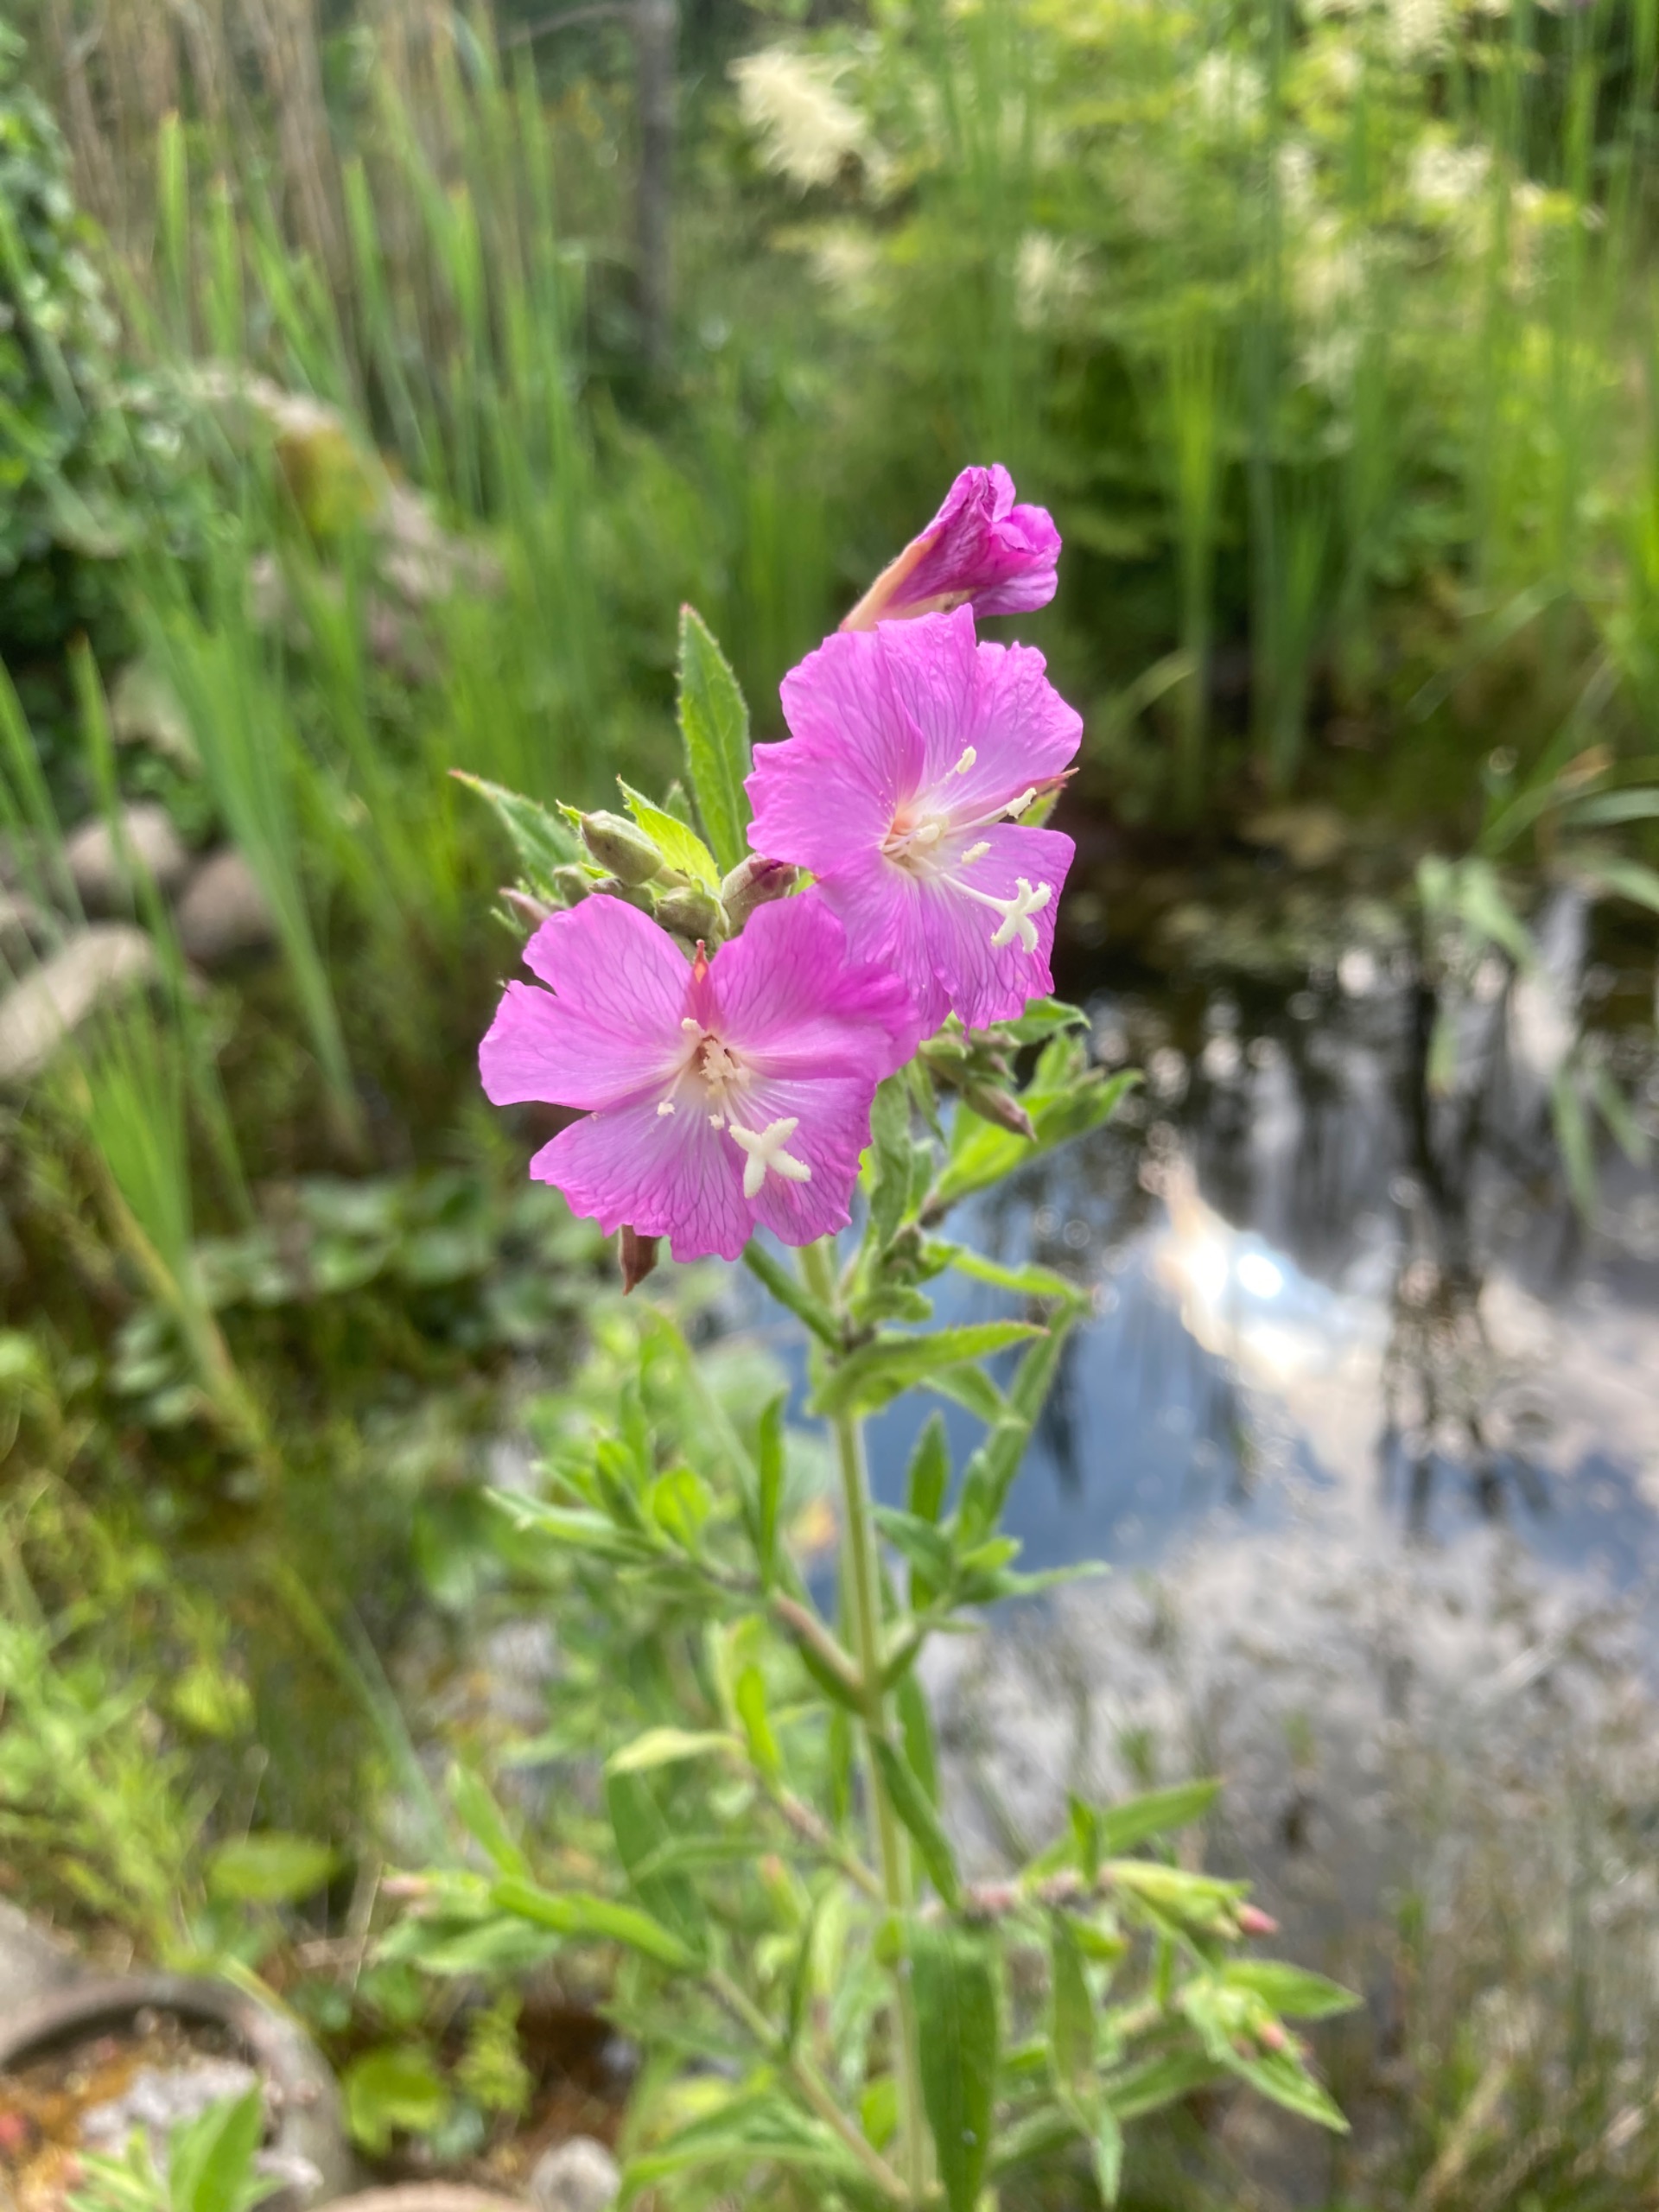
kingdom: Plantae
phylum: Tracheophyta
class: Magnoliopsida
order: Myrtales
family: Onagraceae
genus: Epilobium
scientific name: Epilobium hirsutum
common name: Lådden dueurt
